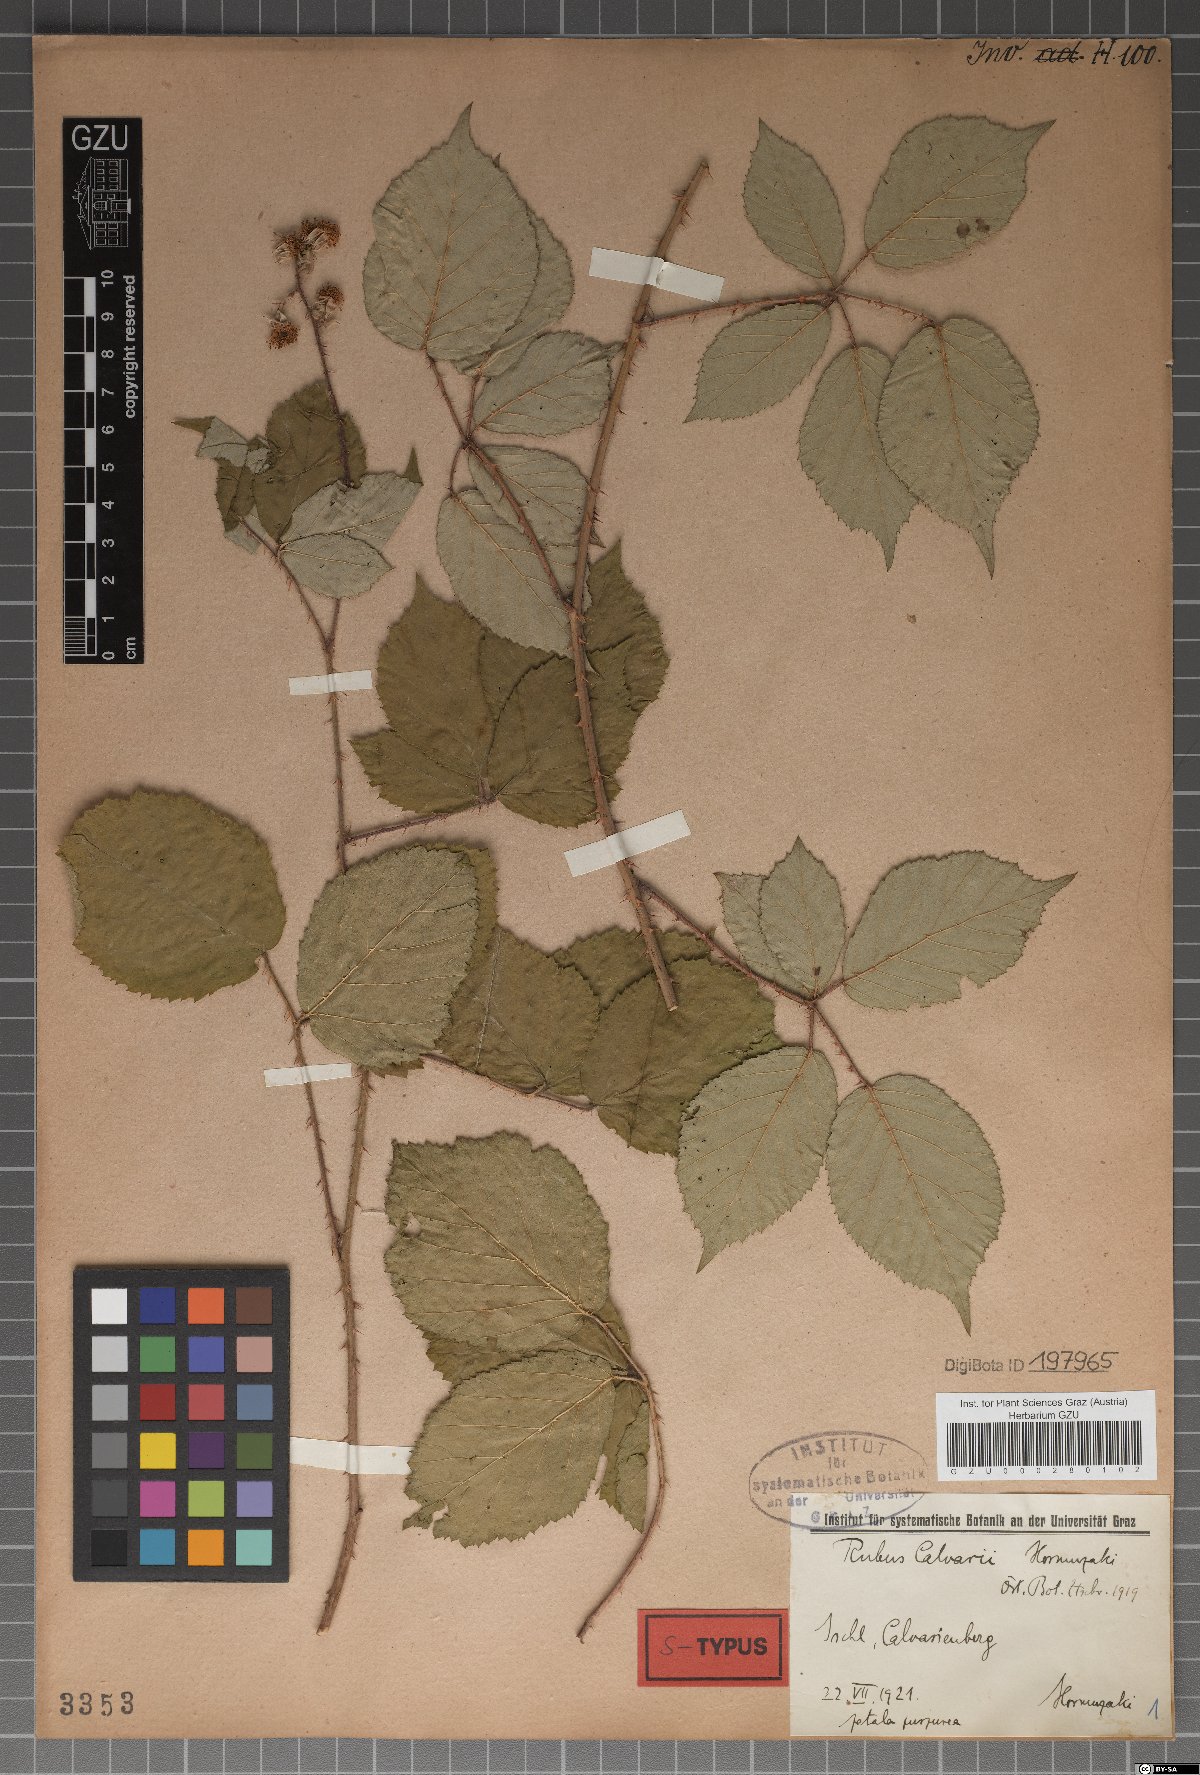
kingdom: Plantae
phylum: Tracheophyta
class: Magnoliopsida
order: Rosales
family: Rosaceae
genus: Rubus
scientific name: Rubus calvarii
